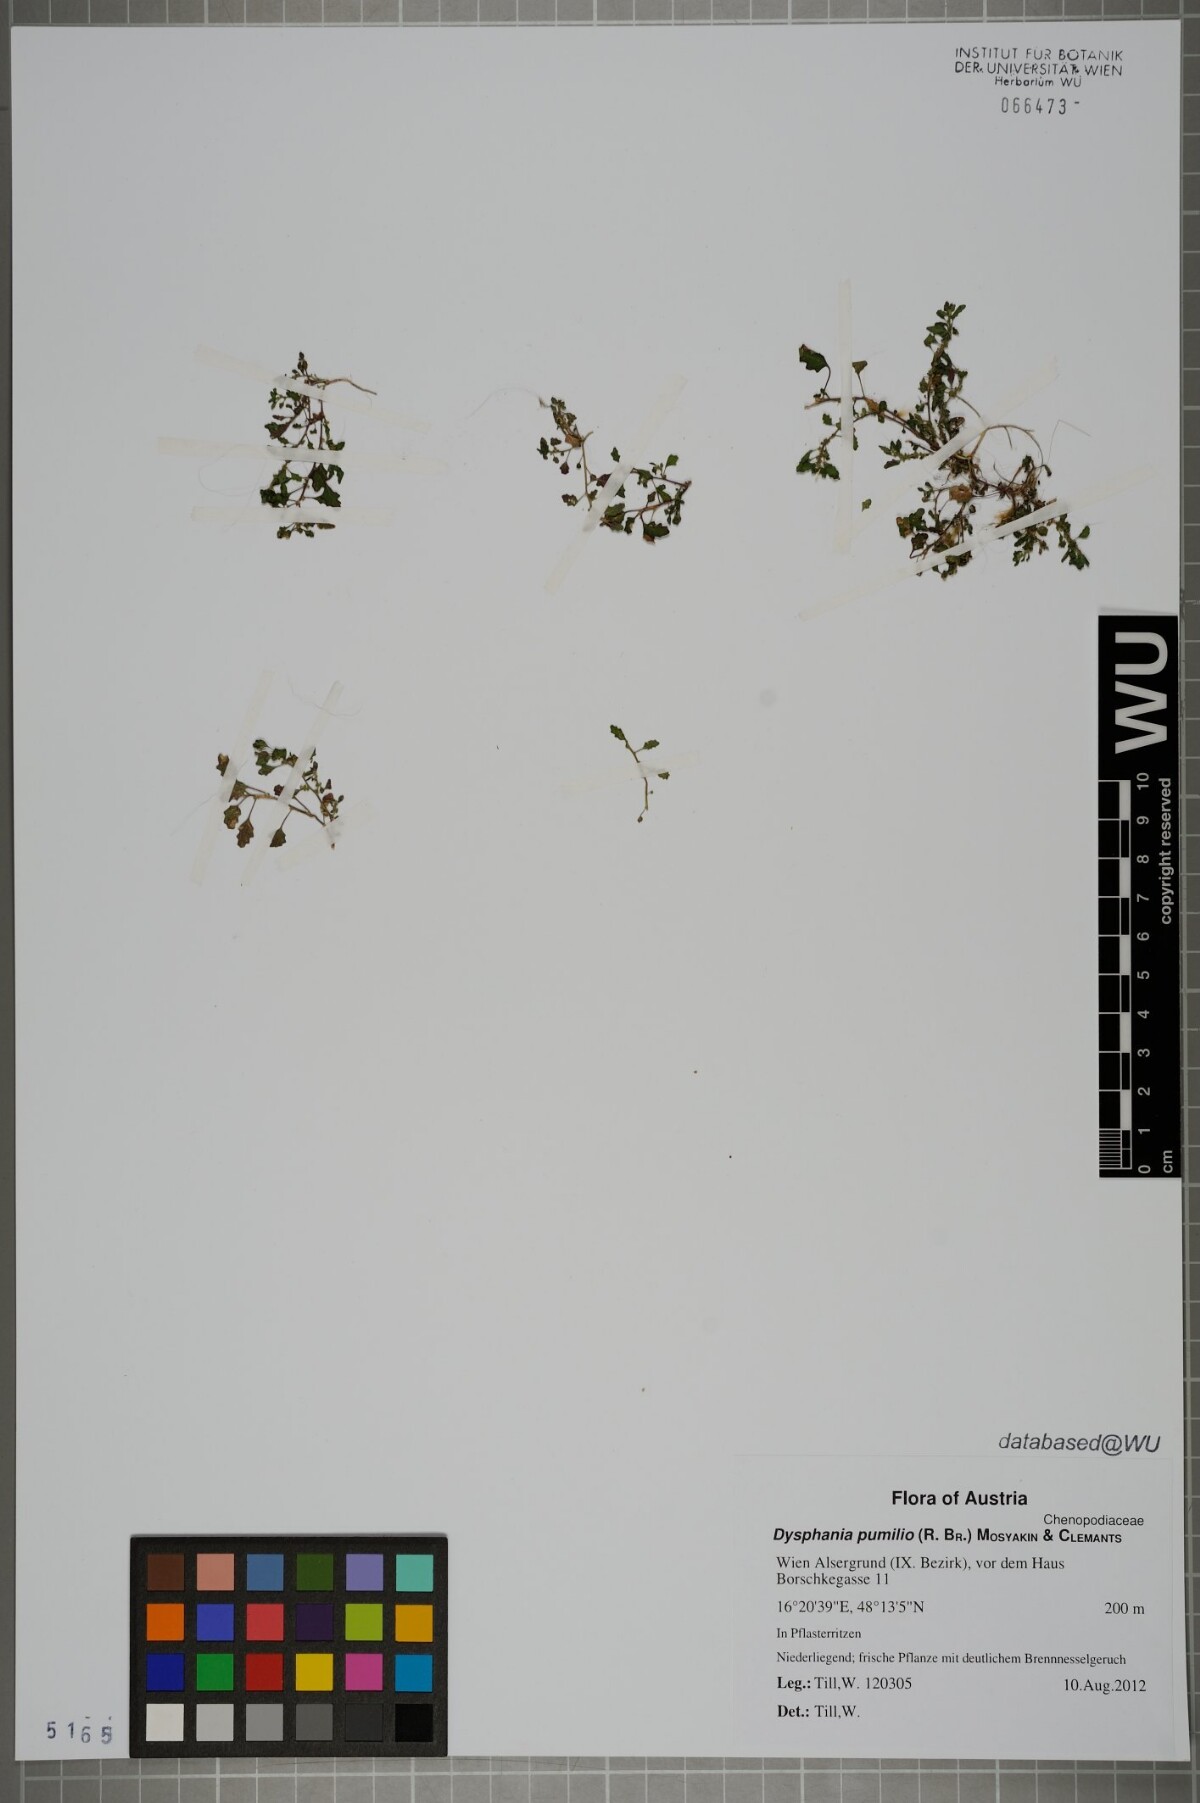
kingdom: Plantae
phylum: Tracheophyta
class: Magnoliopsida
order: Caryophyllales
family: Amaranthaceae
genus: Dysphania
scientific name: Dysphania pumilio
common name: Clammy goosefoot
